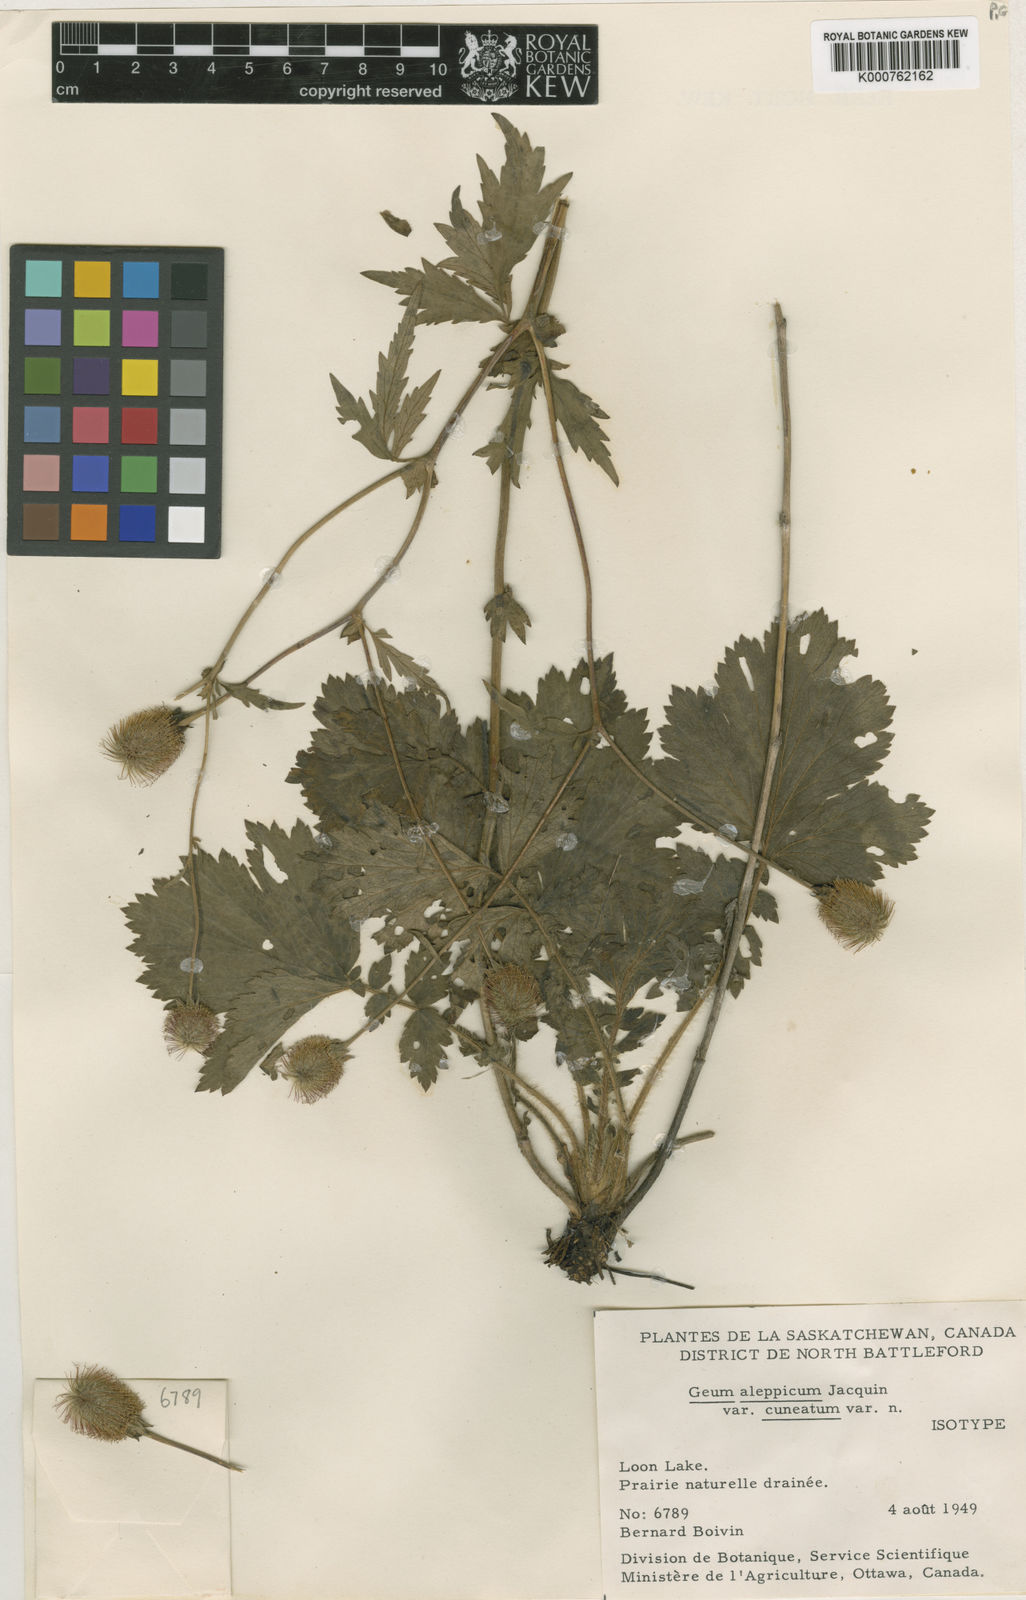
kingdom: Plantae
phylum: Tracheophyta
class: Magnoliopsida
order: Rosales
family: Rosaceae
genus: Geum
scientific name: Geum aleppicum
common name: Yellow avens
